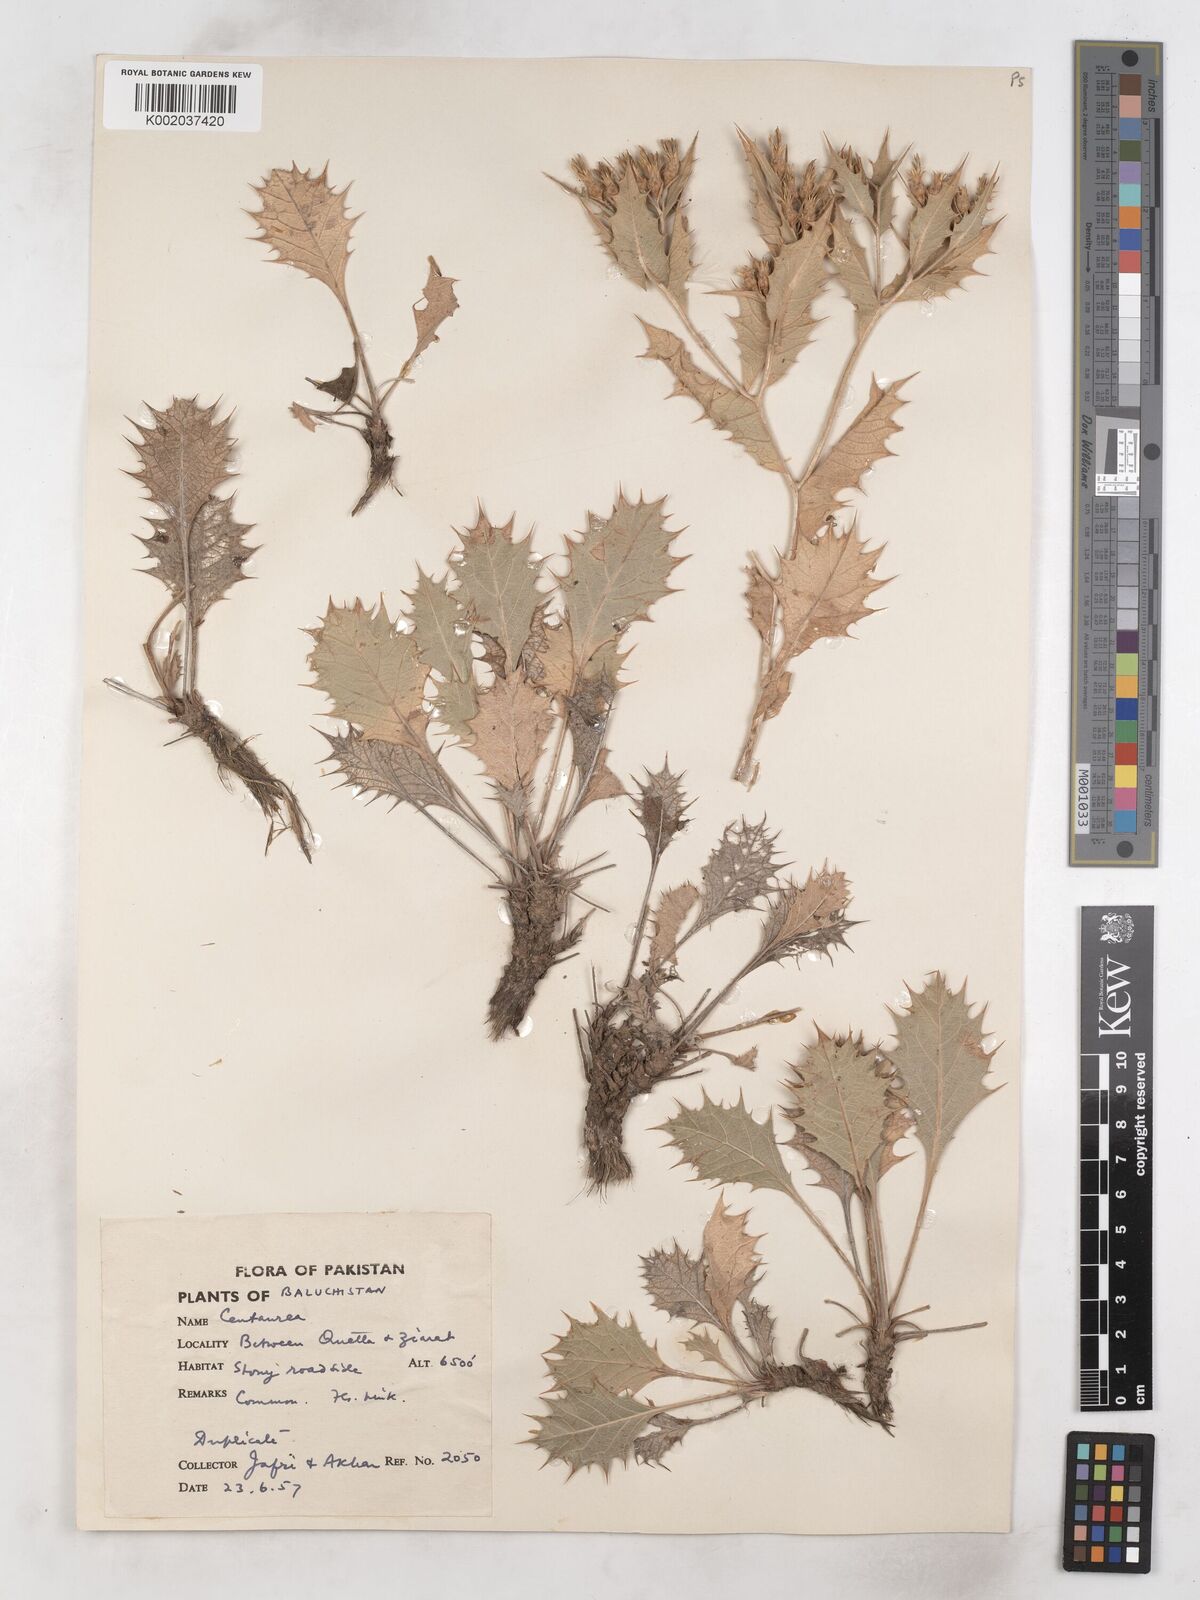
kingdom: Plantae
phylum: Tracheophyta
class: Magnoliopsida
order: Asterales
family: Asteraceae
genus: Cousinia
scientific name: Cousinia heterophylla
